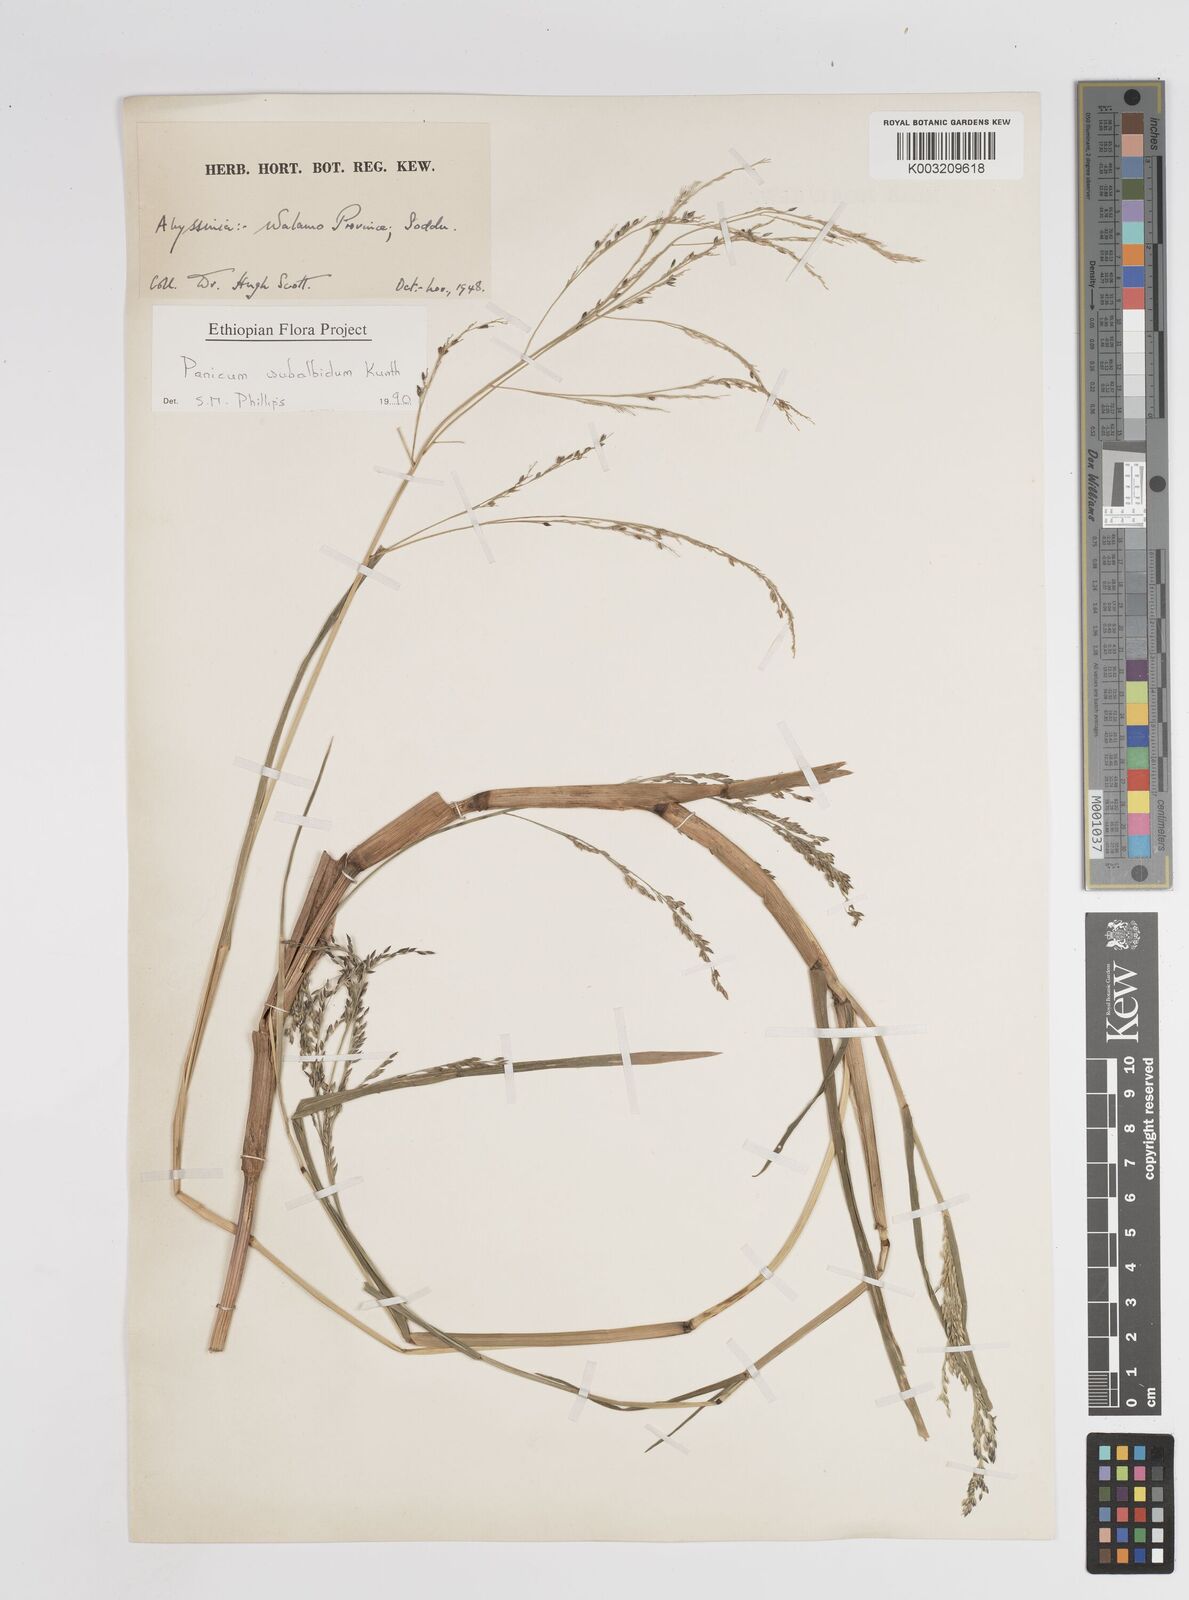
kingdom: Plantae
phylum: Tracheophyta
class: Liliopsida
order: Poales
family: Poaceae
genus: Panicum
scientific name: Panicum subalbidum
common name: Elbow buffalo grass
